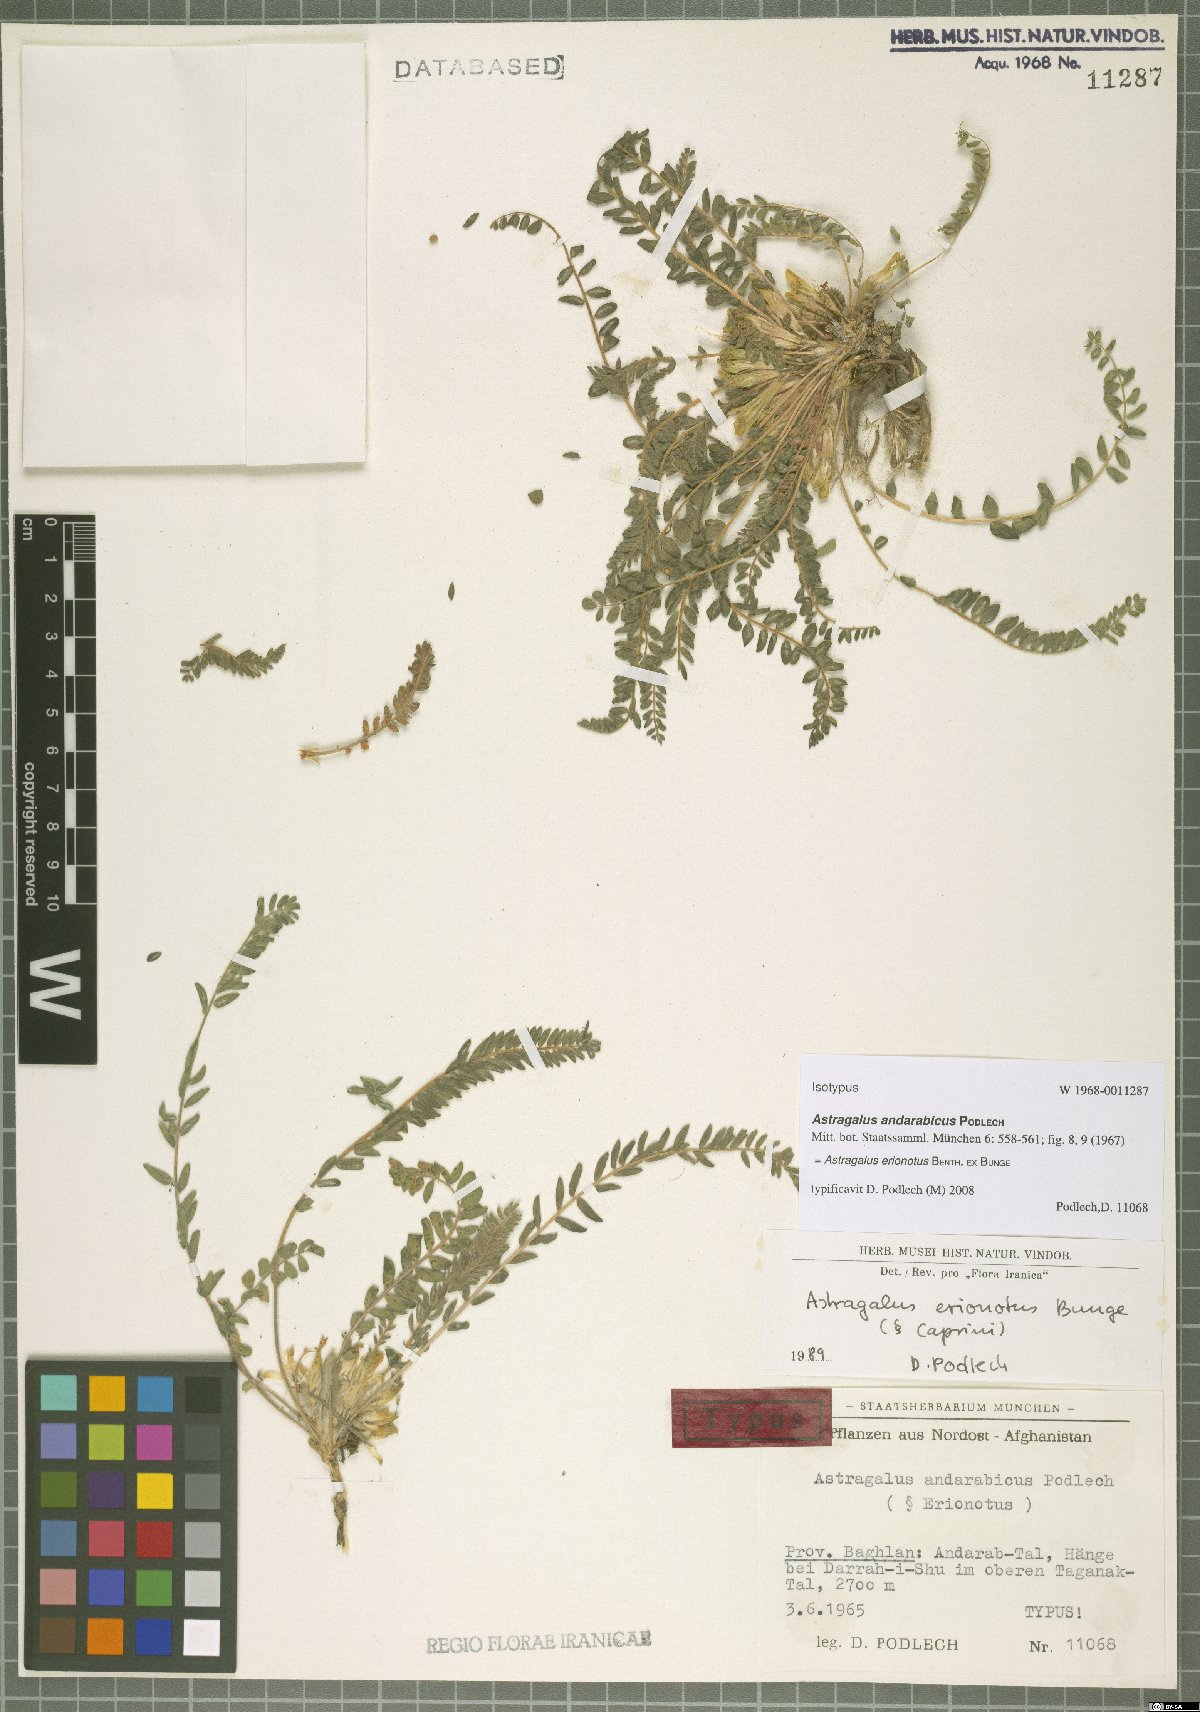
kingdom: Plantae
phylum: Tracheophyta
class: Magnoliopsida
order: Fabales
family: Fabaceae
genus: Astragalus
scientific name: Astragalus erionotus
